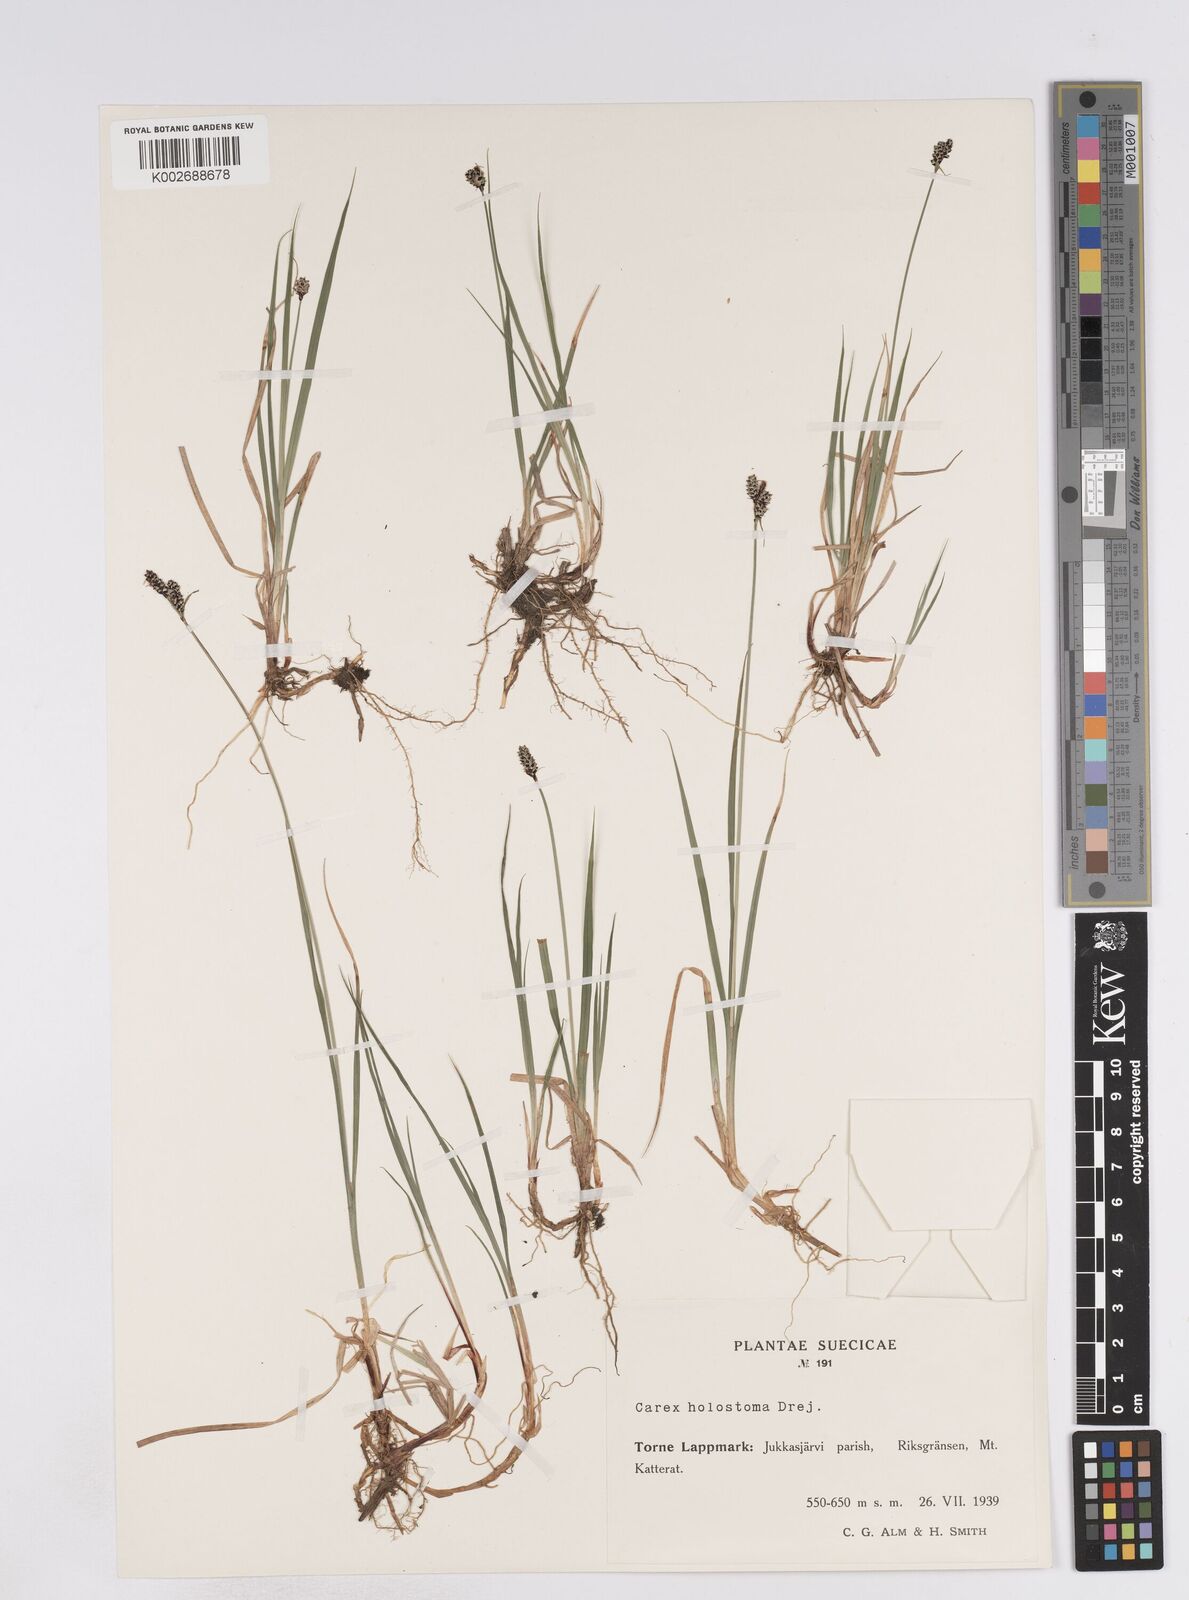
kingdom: Plantae
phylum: Tracheophyta
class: Liliopsida
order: Poales
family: Cyperaceae
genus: Carex
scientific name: Carex holostoma
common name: Arctic marsh sedge
